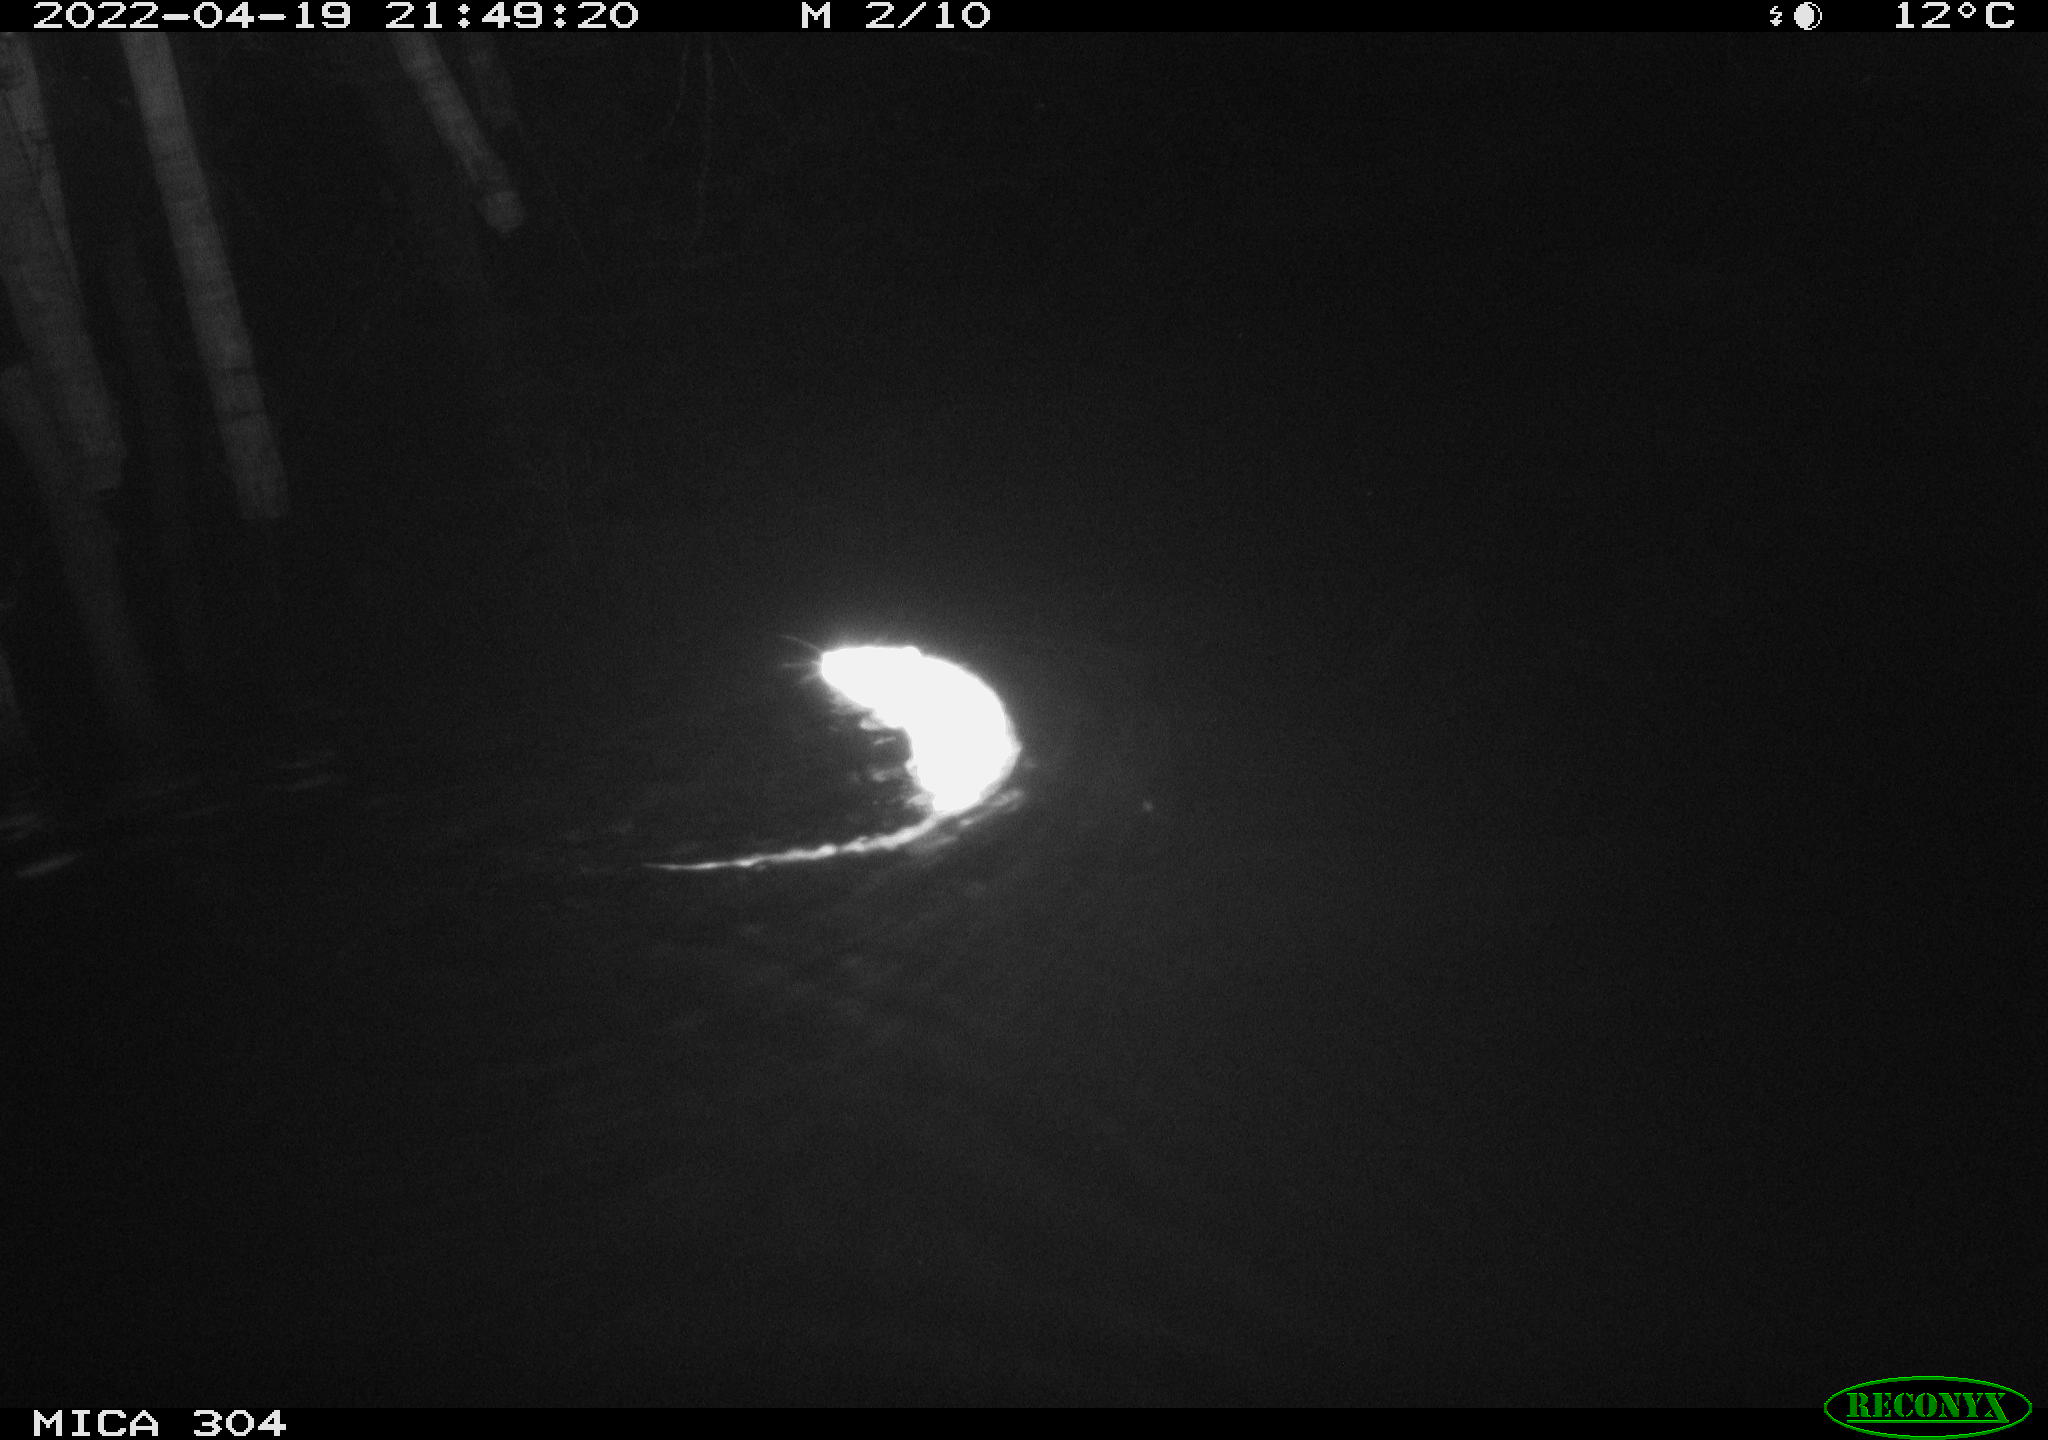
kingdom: Animalia
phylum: Chordata
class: Mammalia
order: Rodentia
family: Muridae
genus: Rattus
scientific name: Rattus norvegicus
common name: Brown rat
